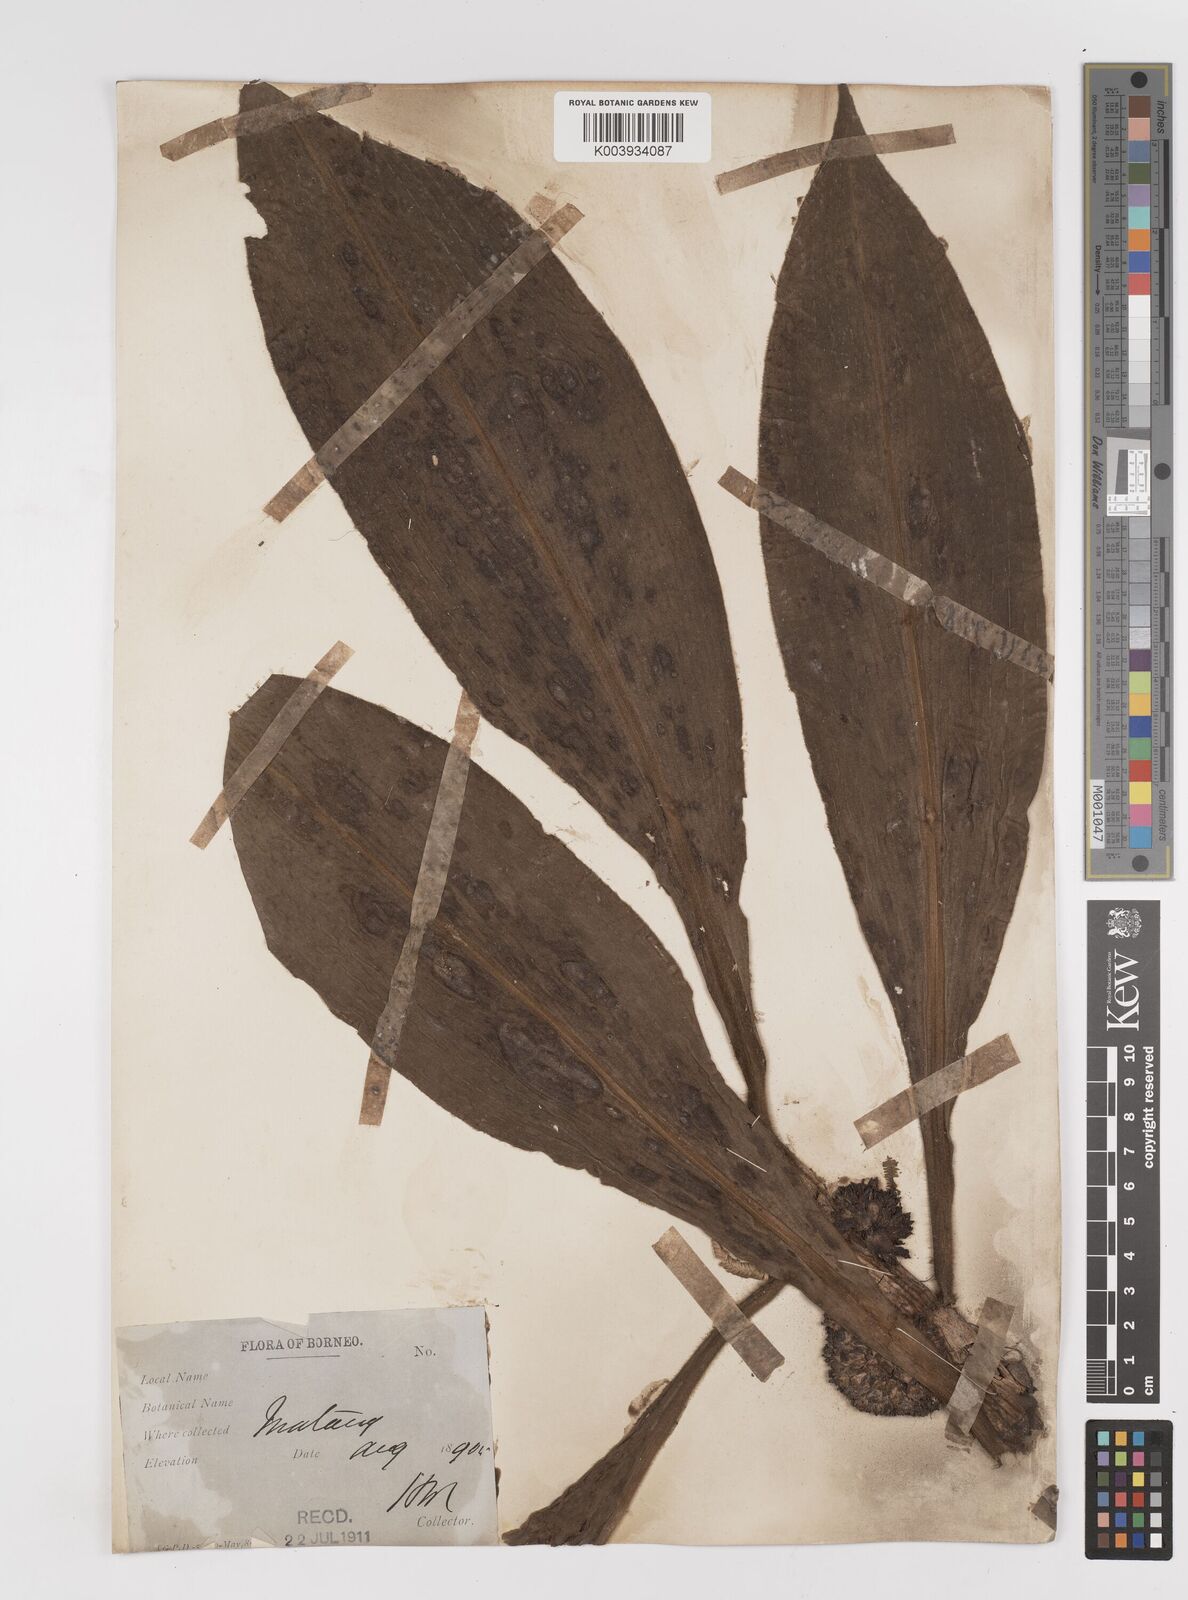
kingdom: Plantae
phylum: Tracheophyta
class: Liliopsida
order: Commelinales
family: Commelinaceae
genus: Amischotolype
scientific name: Amischotolype
